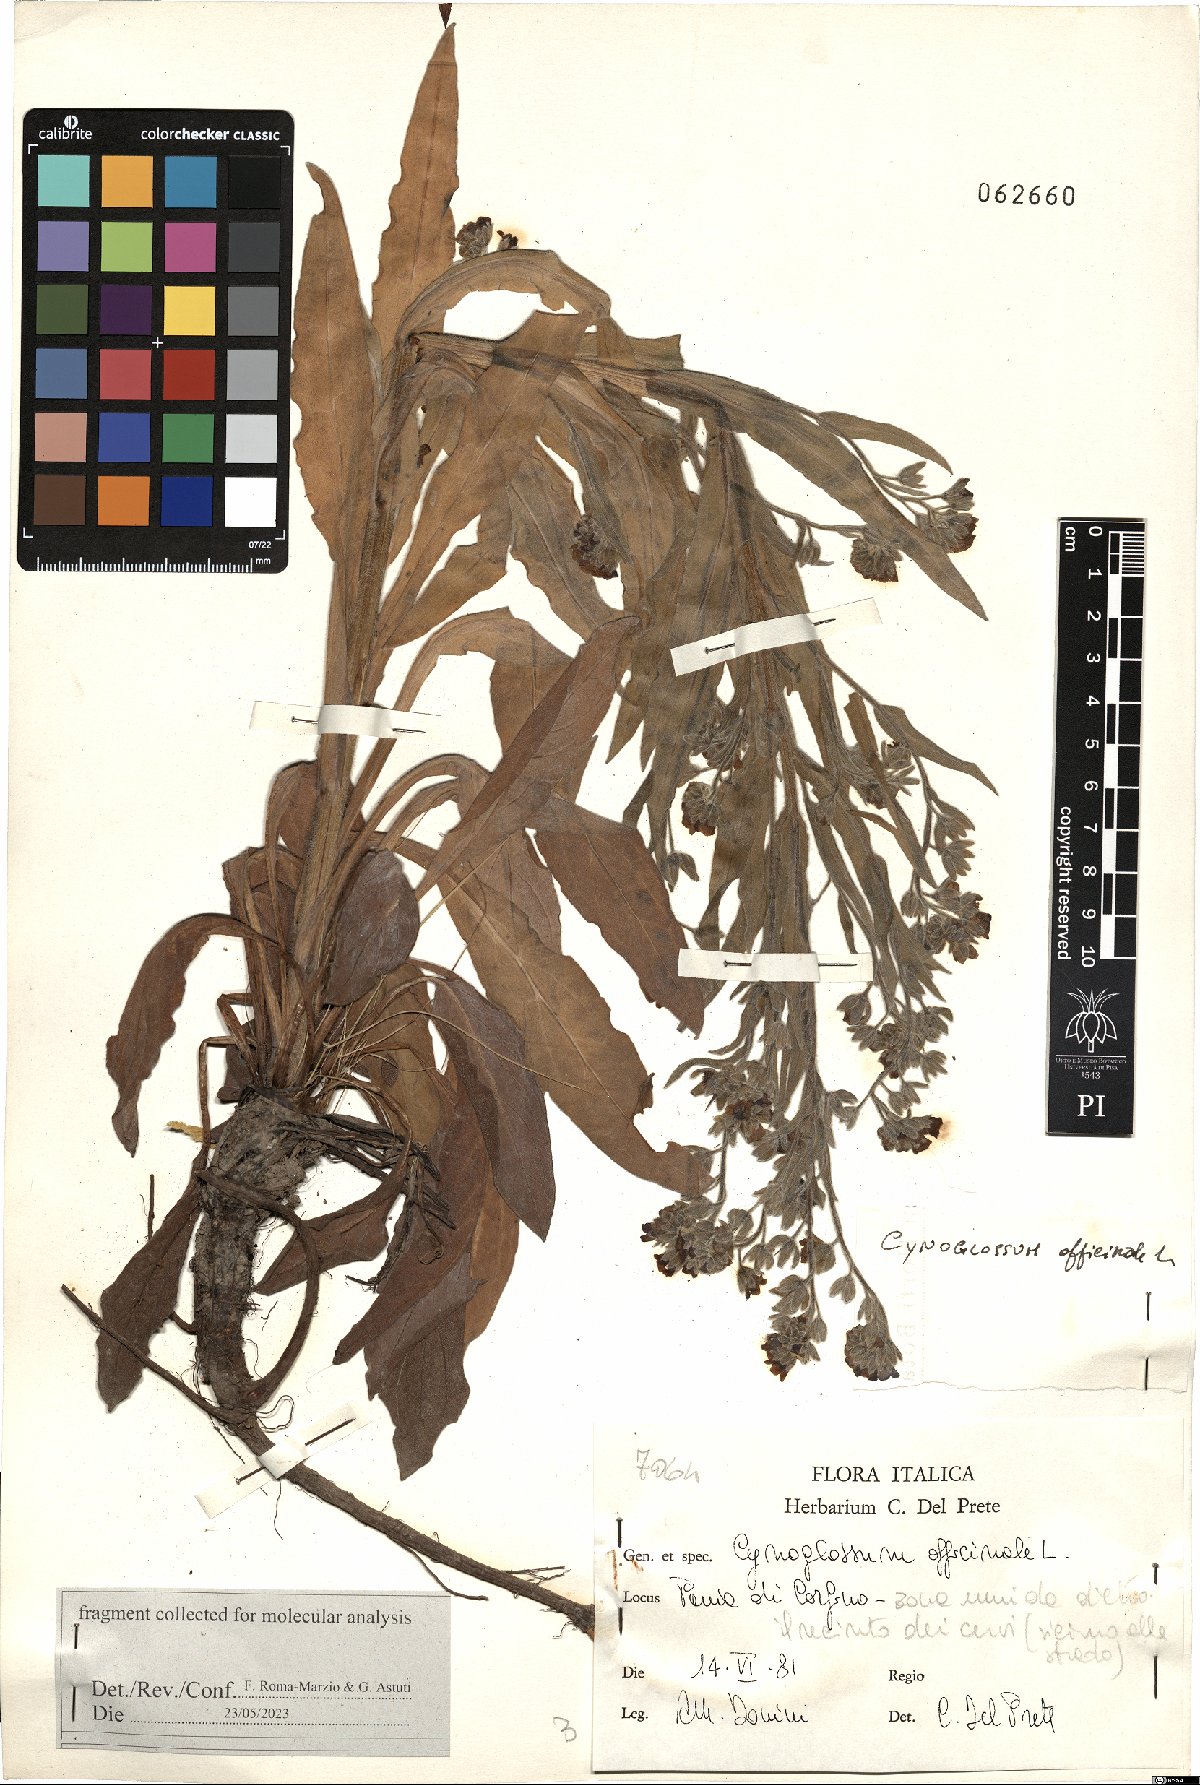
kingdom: Plantae
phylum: Tracheophyta
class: Magnoliopsida
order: Boraginales
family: Boraginaceae
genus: Cynoglossum
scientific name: Cynoglossum officinale
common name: Hound's-tongue
